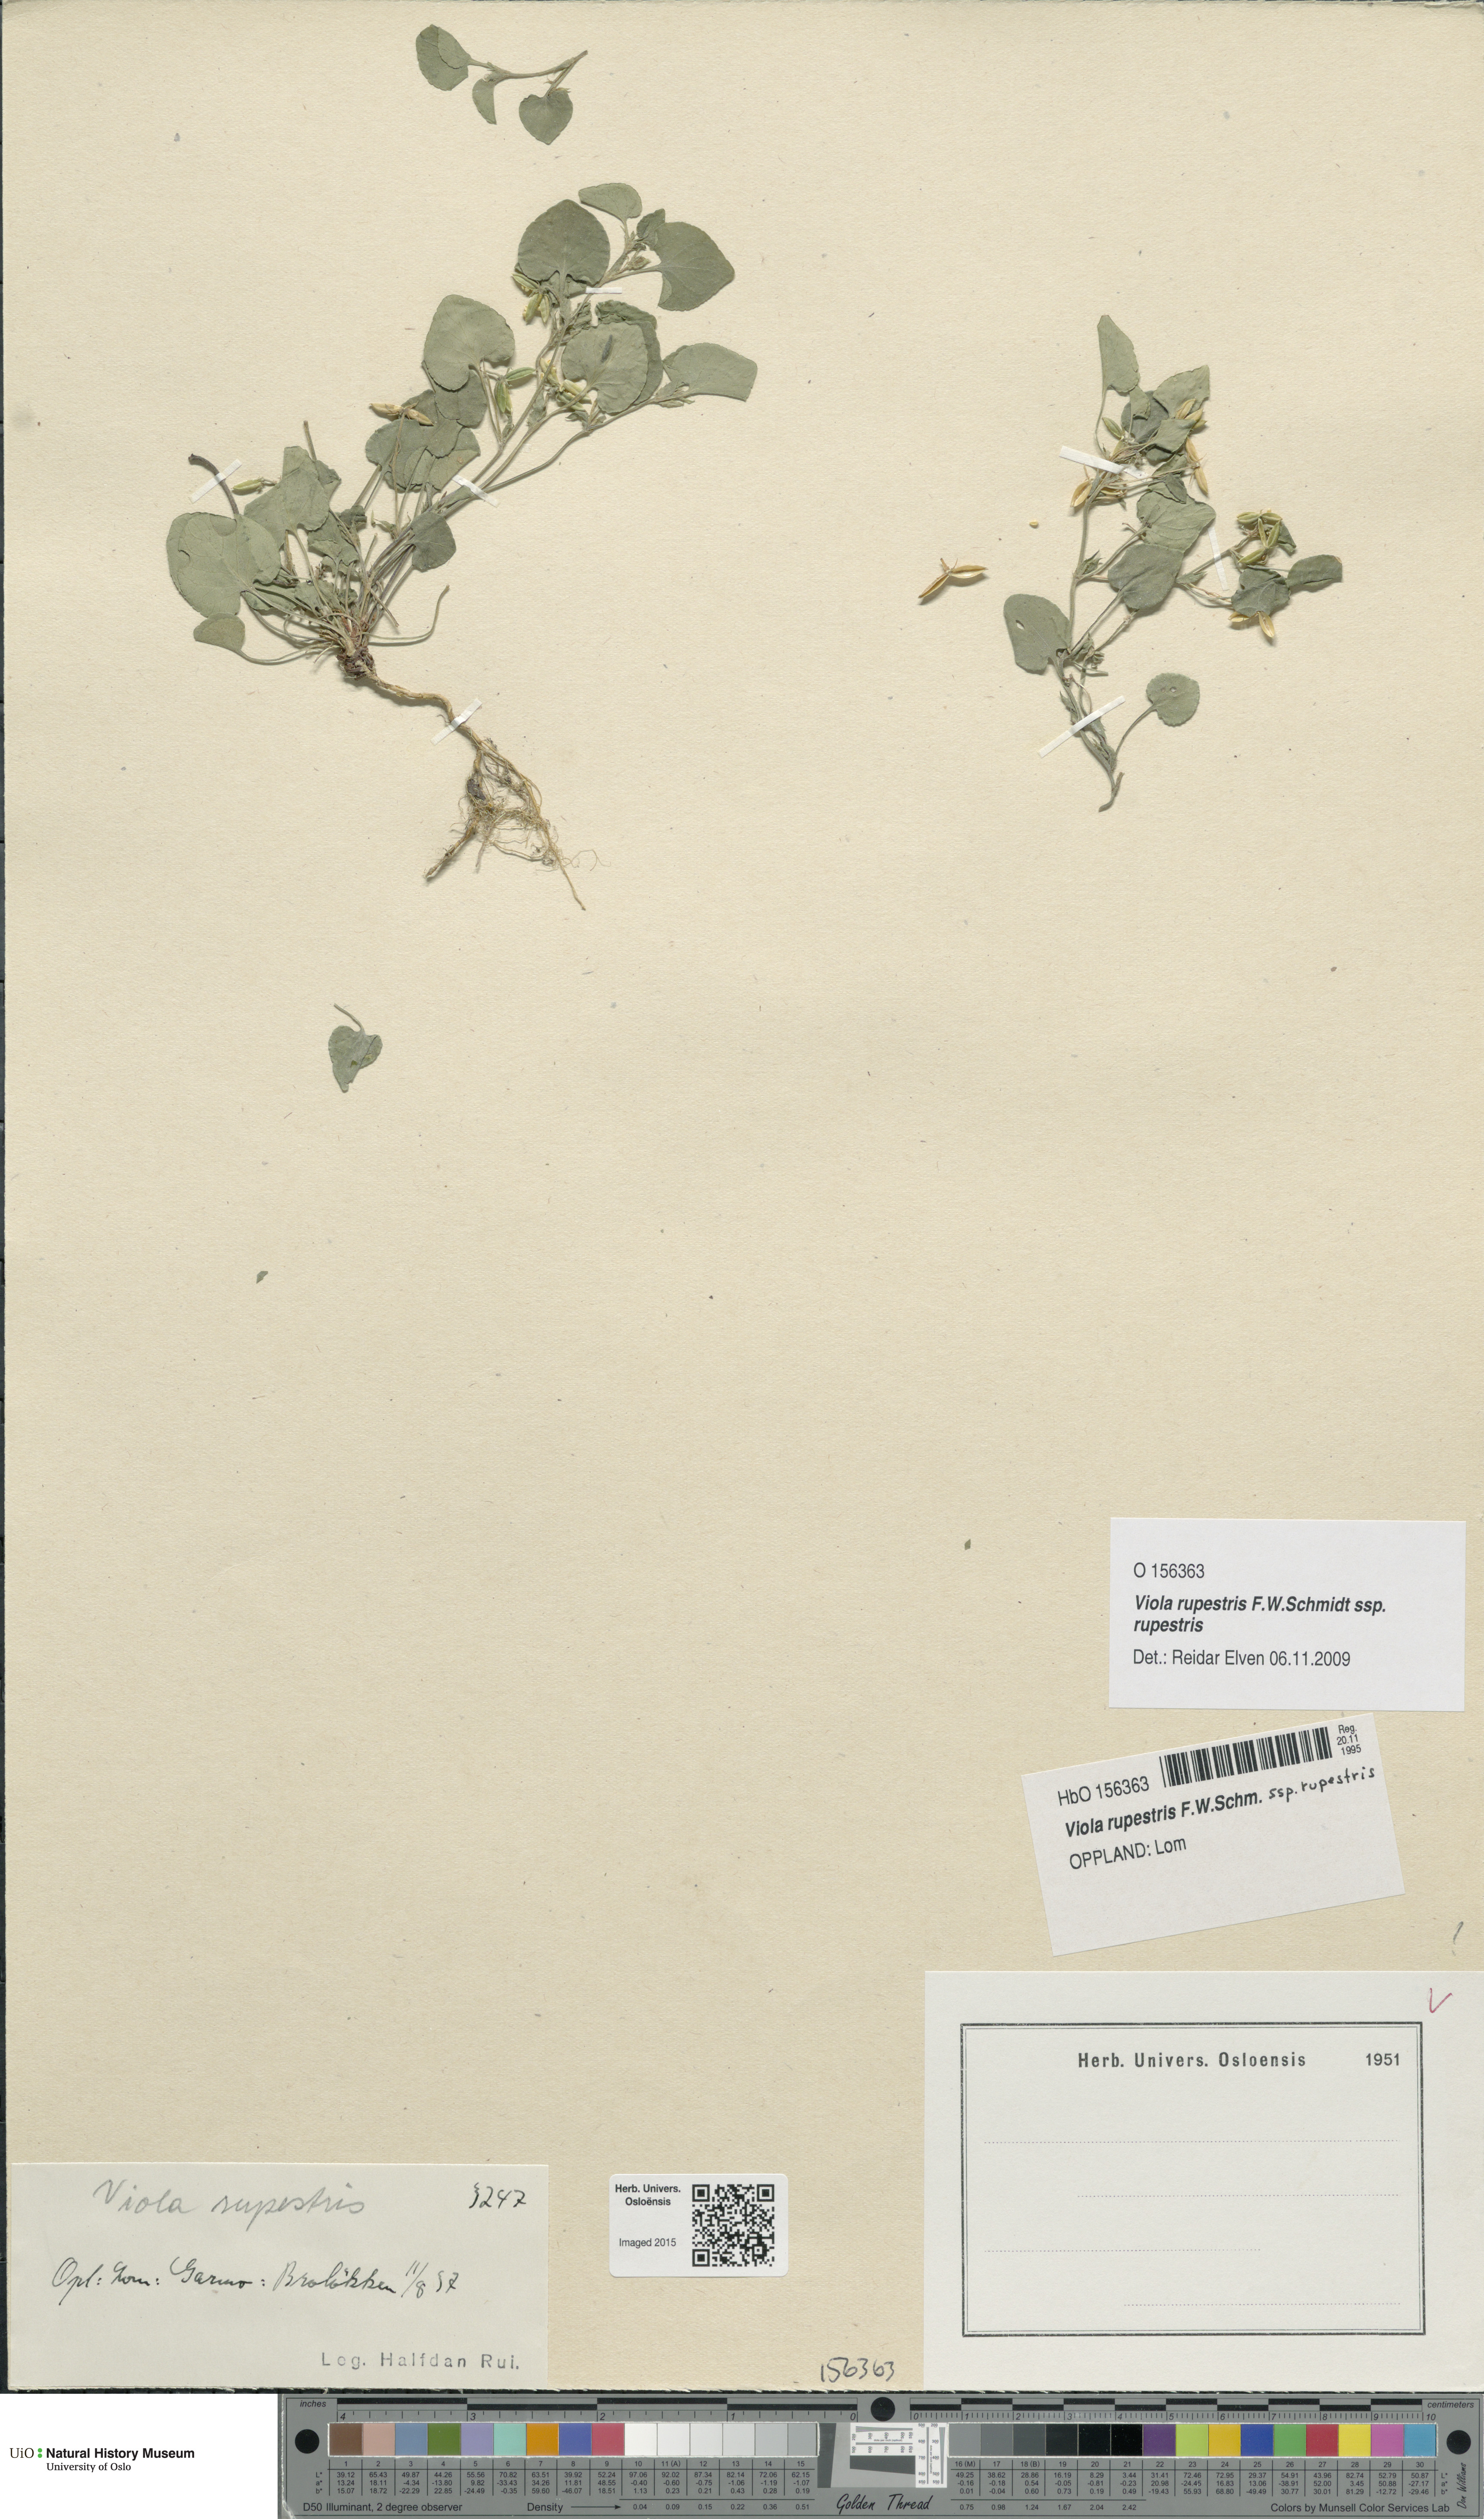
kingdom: Plantae
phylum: Tracheophyta
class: Magnoliopsida
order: Malpighiales
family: Violaceae
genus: Viola
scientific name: Viola rupestris
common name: Teesdale violet
